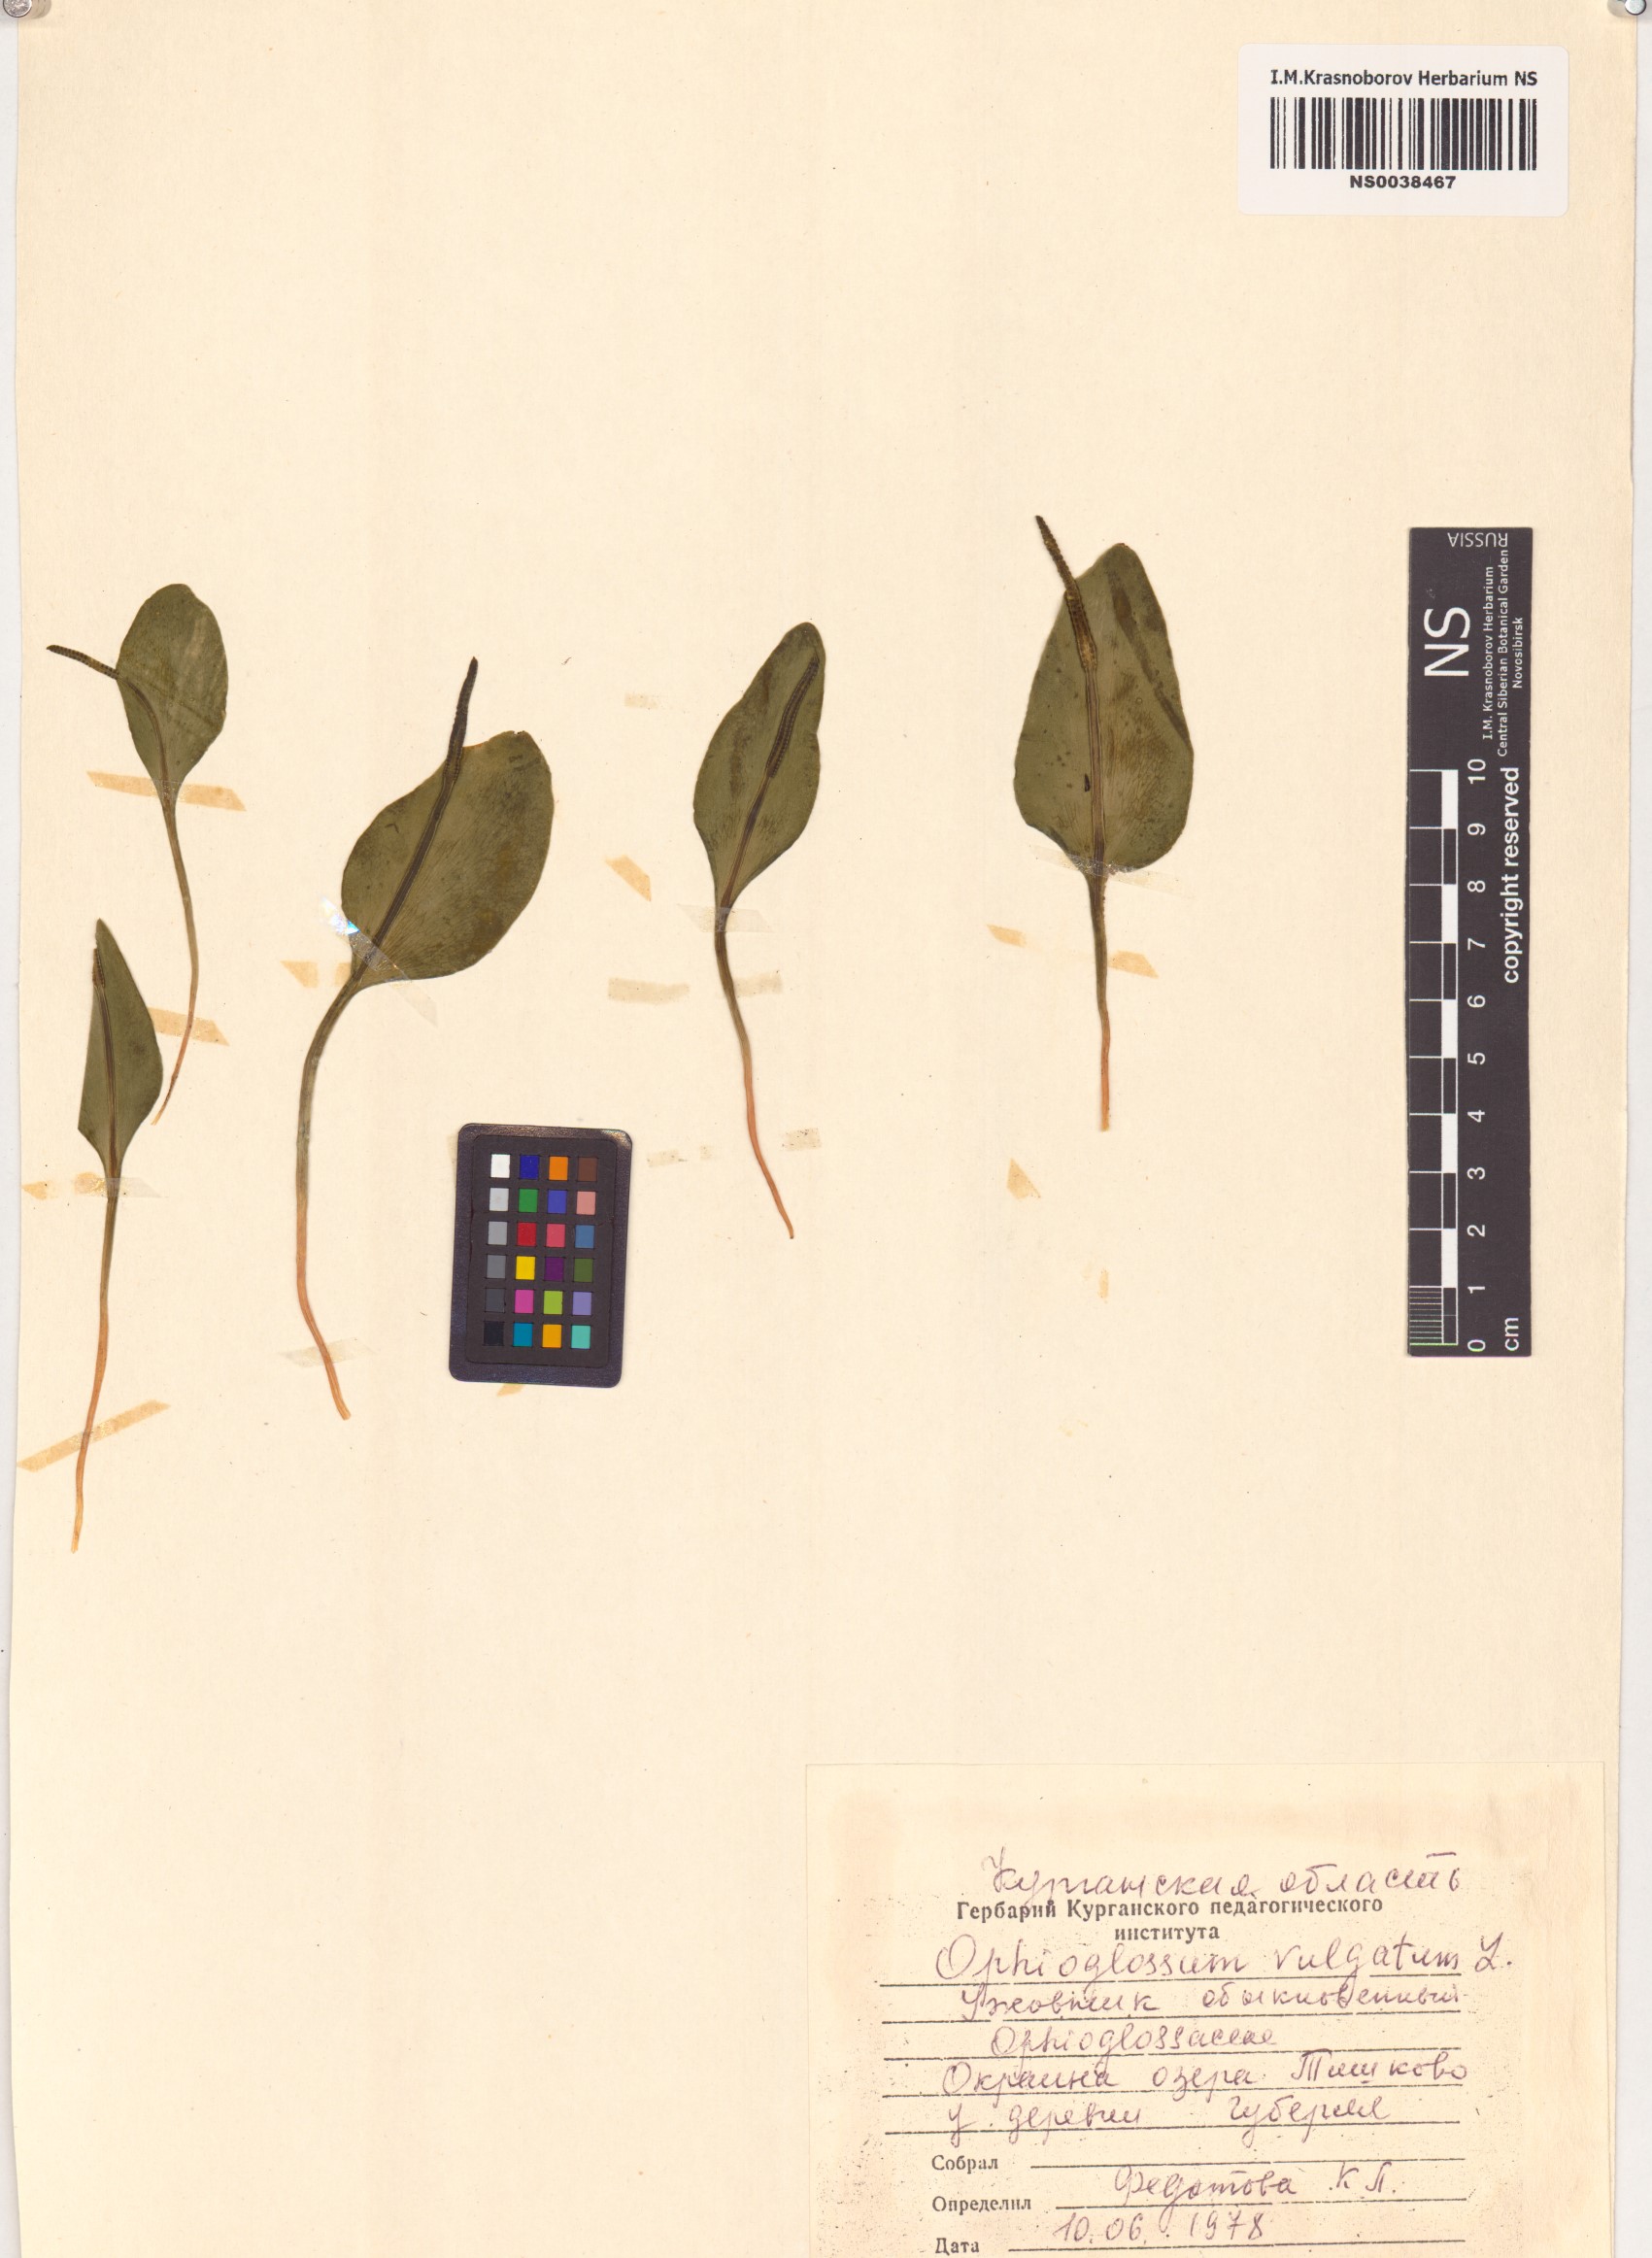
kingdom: Plantae
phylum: Tracheophyta
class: Polypodiopsida
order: Ophioglossales
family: Ophioglossaceae
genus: Ophioglossum
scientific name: Ophioglossum vulgatum
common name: Adder's-tongue
